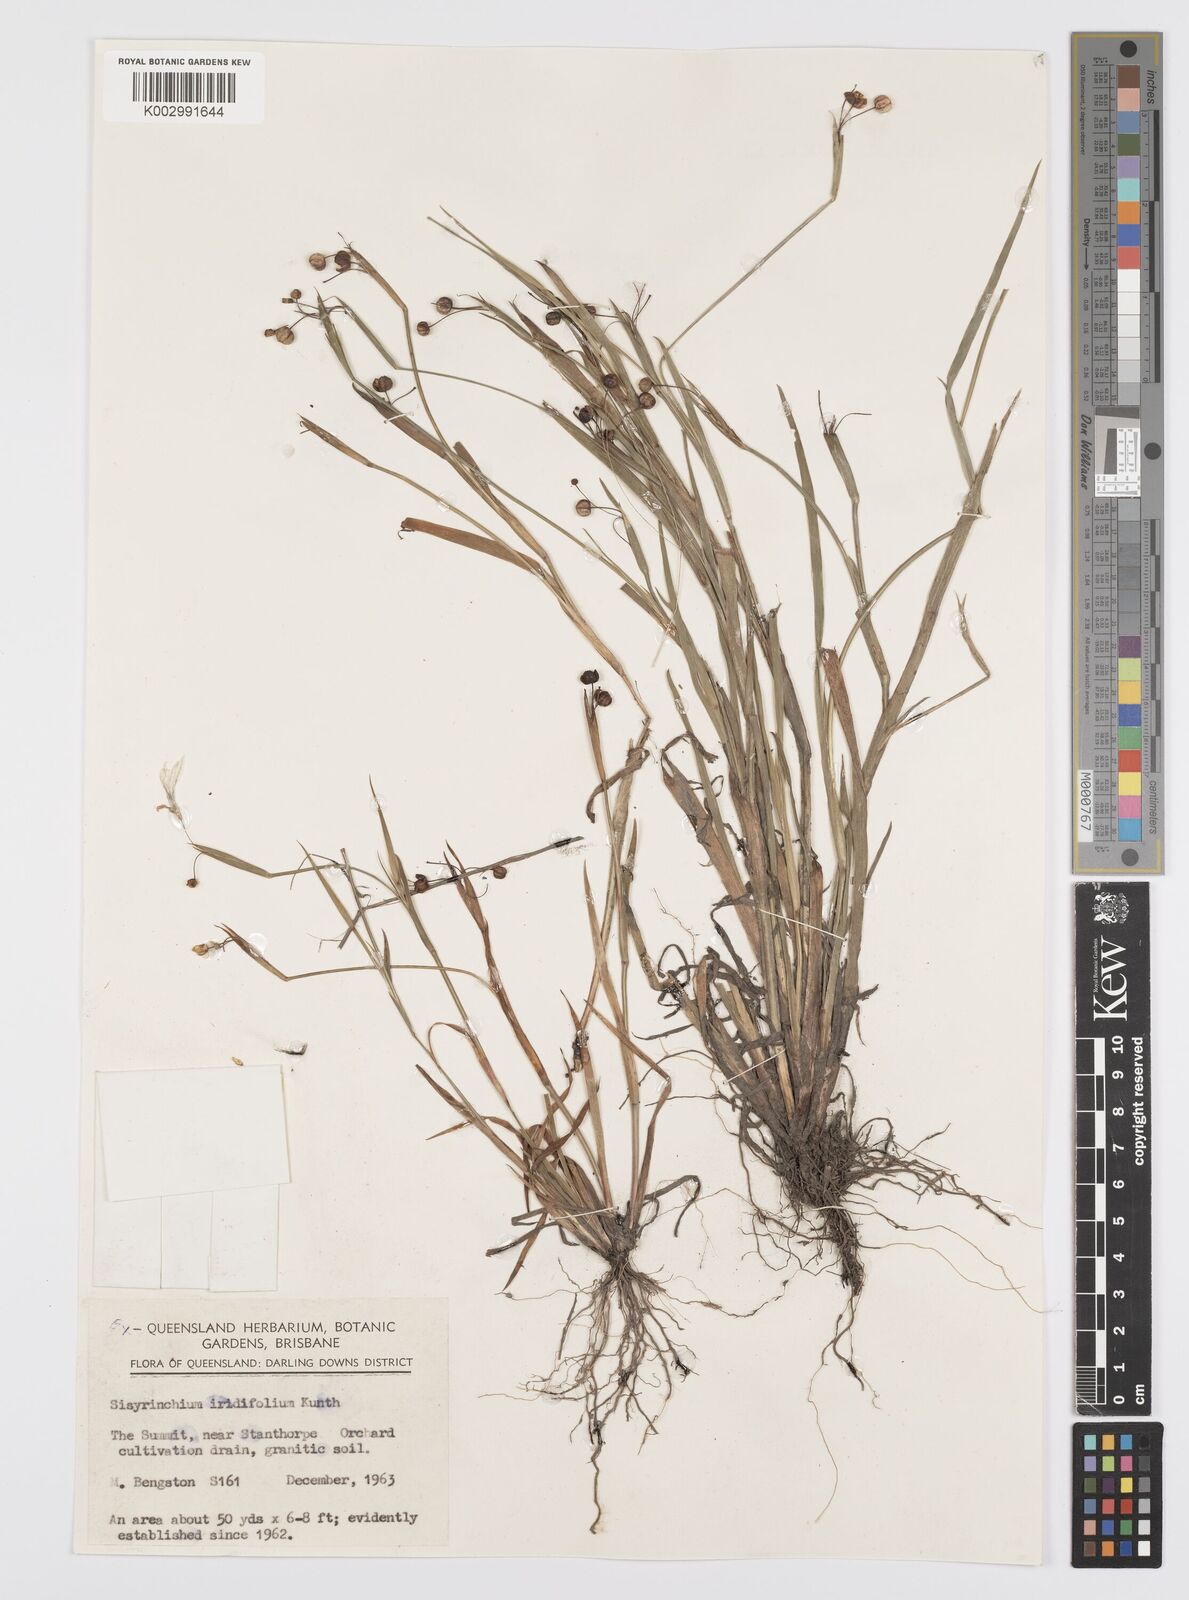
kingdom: Plantae
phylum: Tracheophyta
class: Liliopsida
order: Asparagales
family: Iridaceae
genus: Sisyrinchium
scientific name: Sisyrinchium micranthum
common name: Bermuda pigroot
